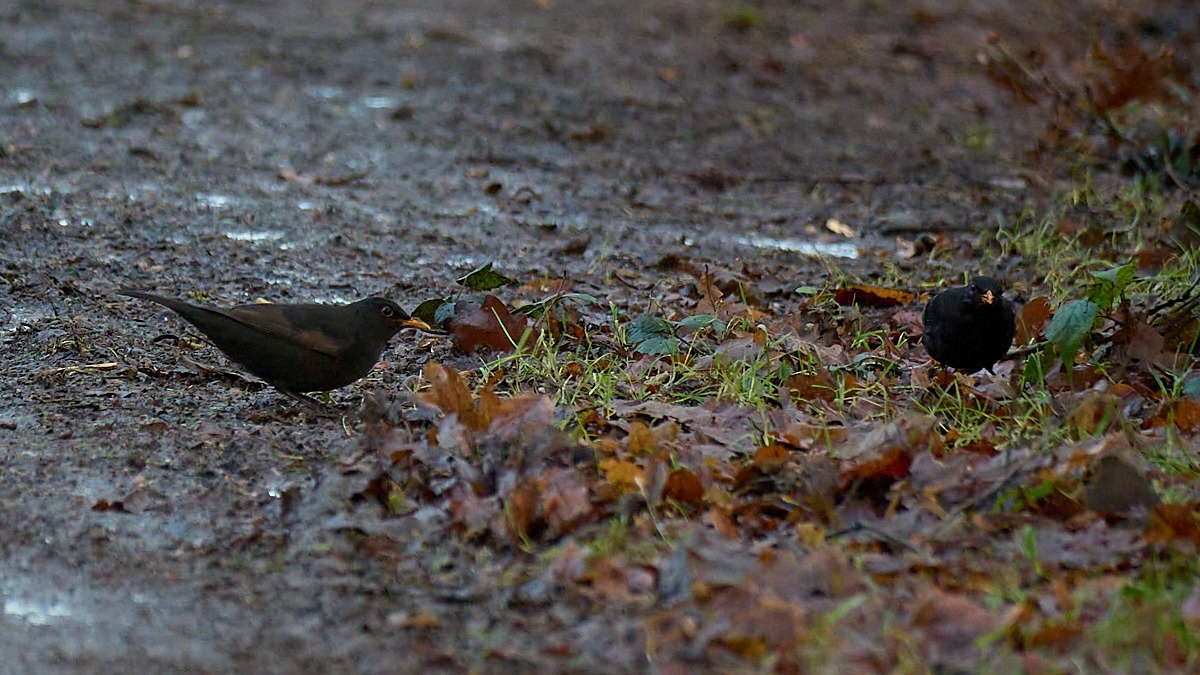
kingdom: Animalia
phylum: Chordata
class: Aves
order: Passeriformes
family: Turdidae
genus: Turdus
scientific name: Turdus merula
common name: Solsort
